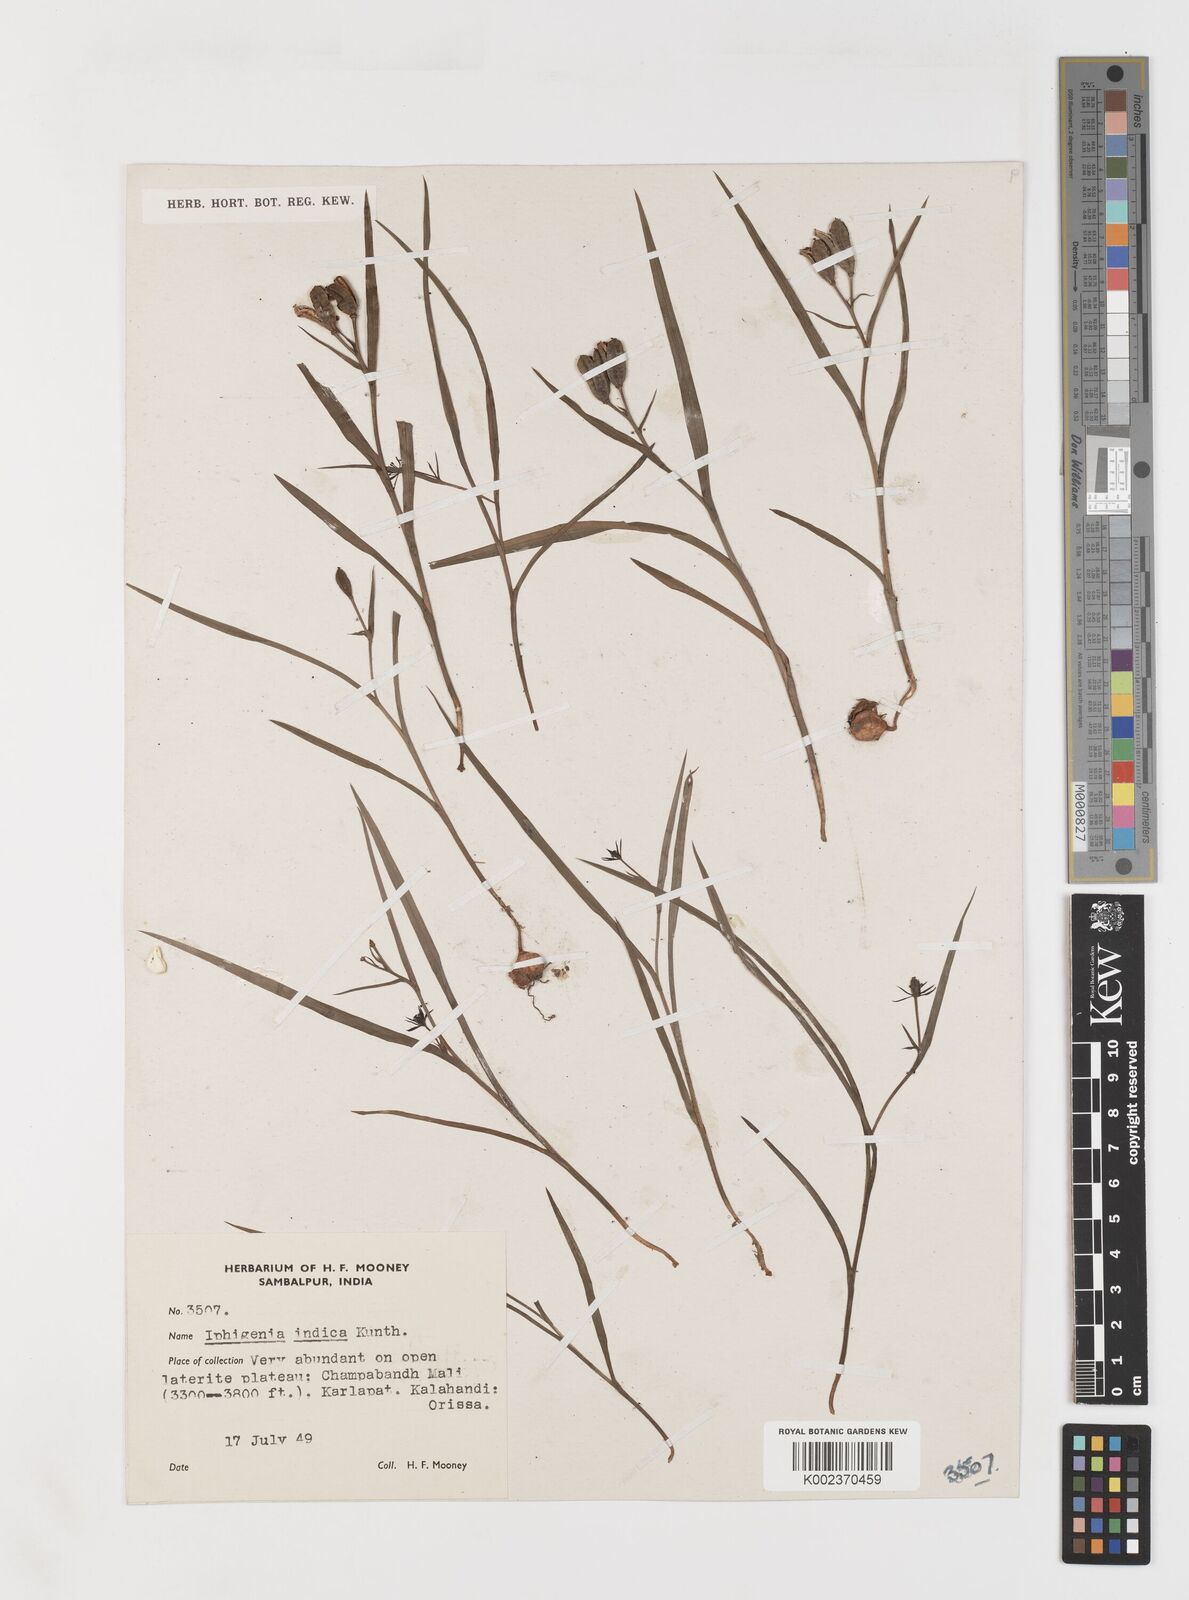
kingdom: Plantae
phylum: Tracheophyta
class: Liliopsida
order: Liliales
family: Colchicaceae
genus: Iphigenia
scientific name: Iphigenia indica
